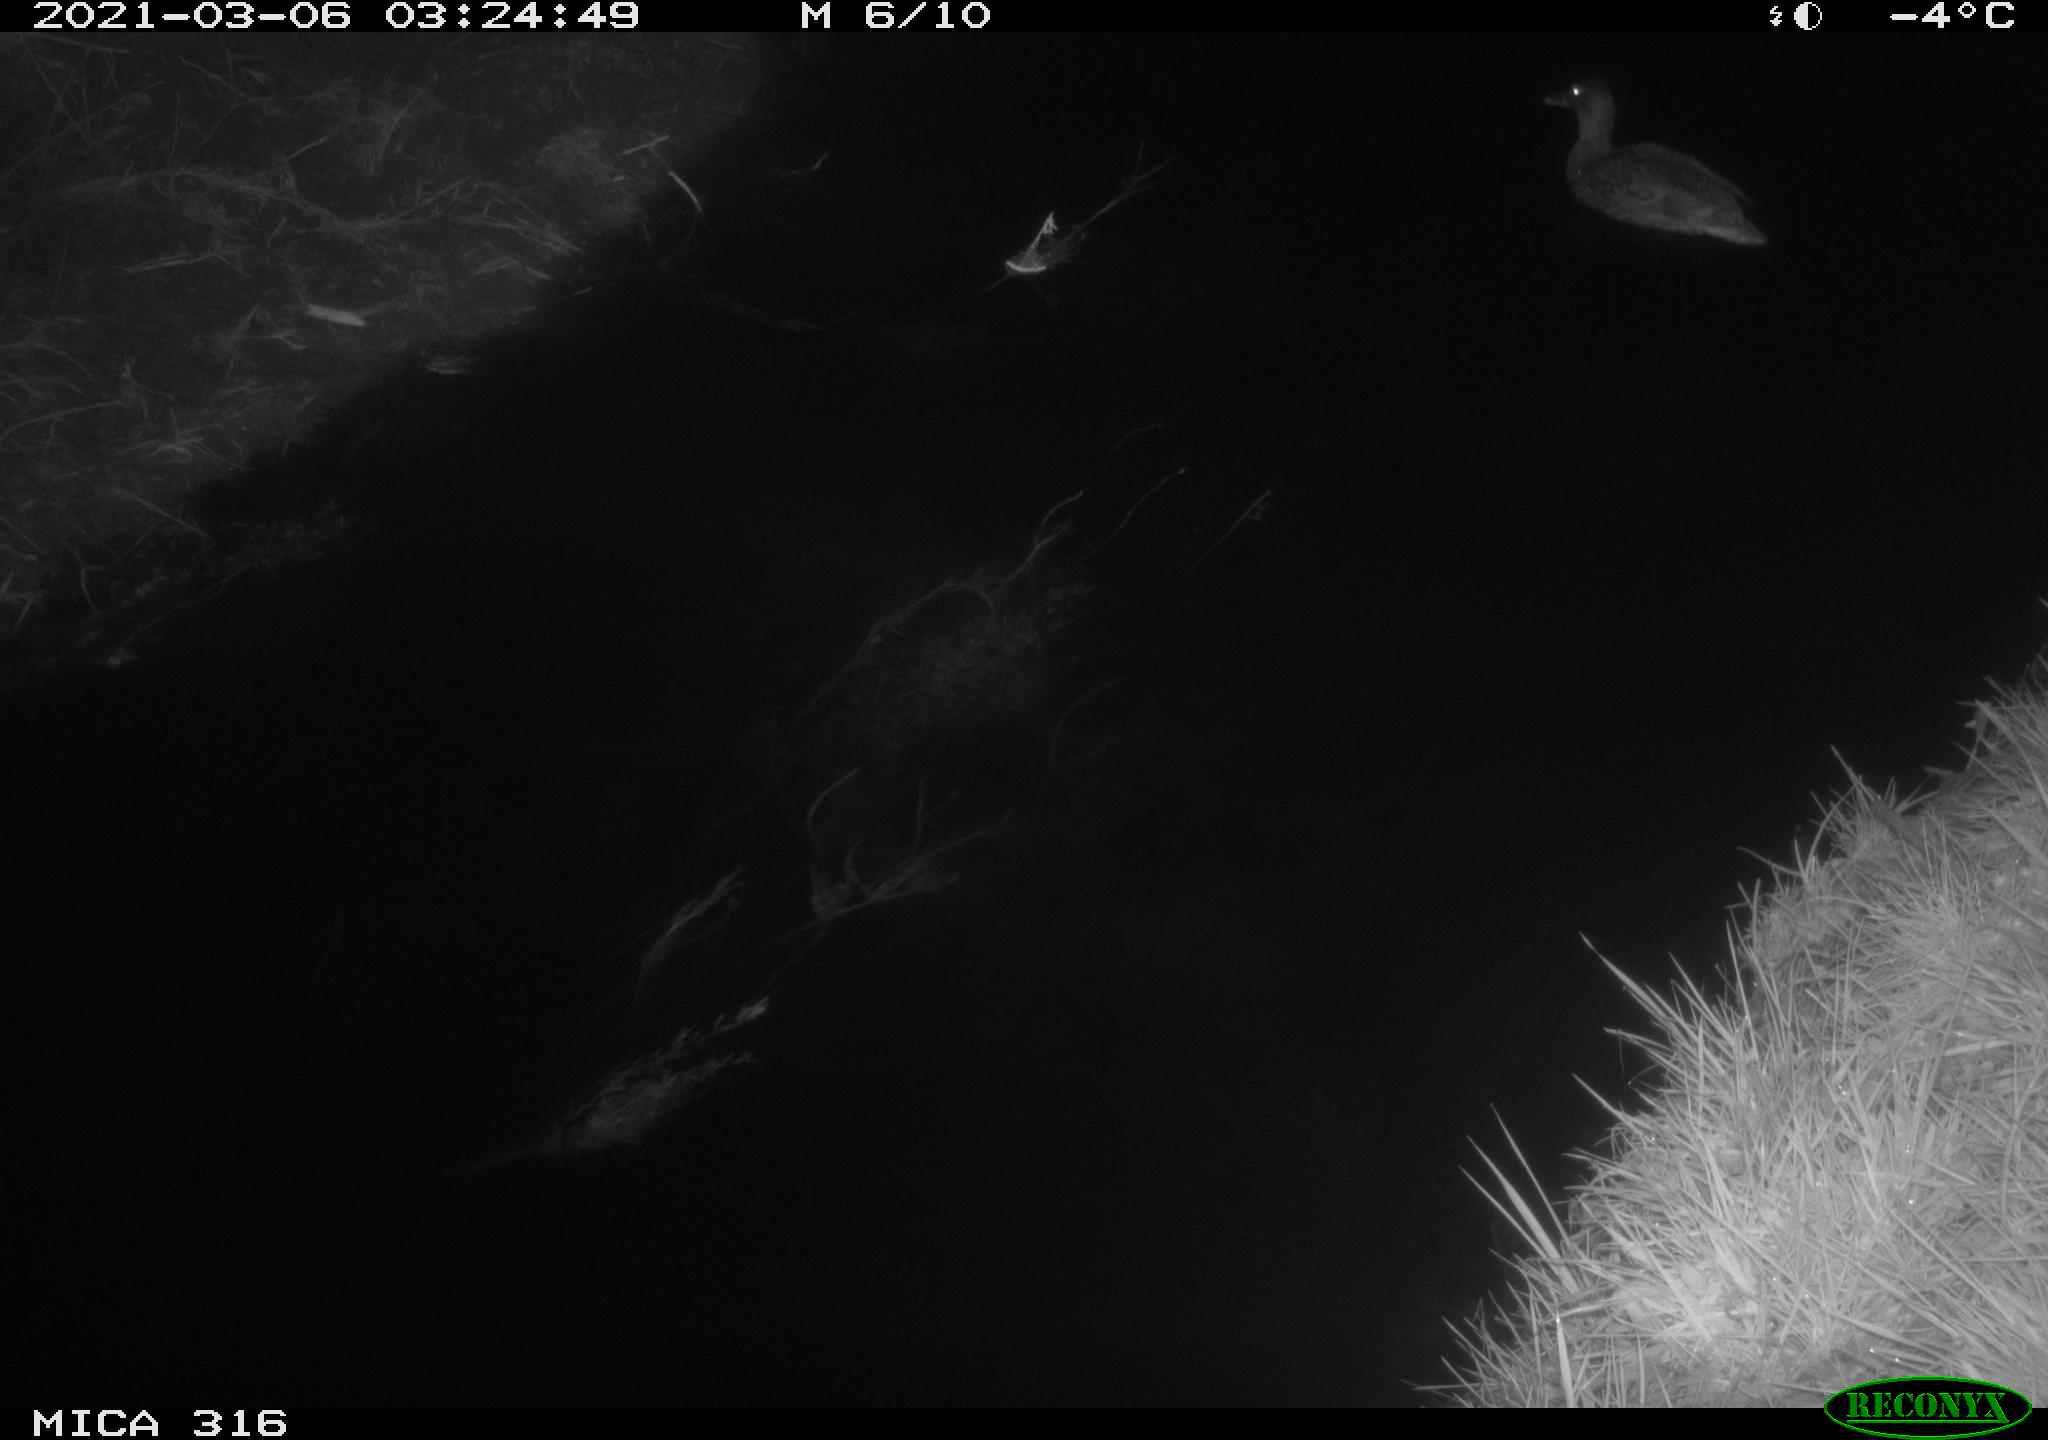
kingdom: Animalia
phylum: Chordata
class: Aves
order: Anseriformes
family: Anatidae
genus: Anas
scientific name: Anas platyrhynchos
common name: Mallard
